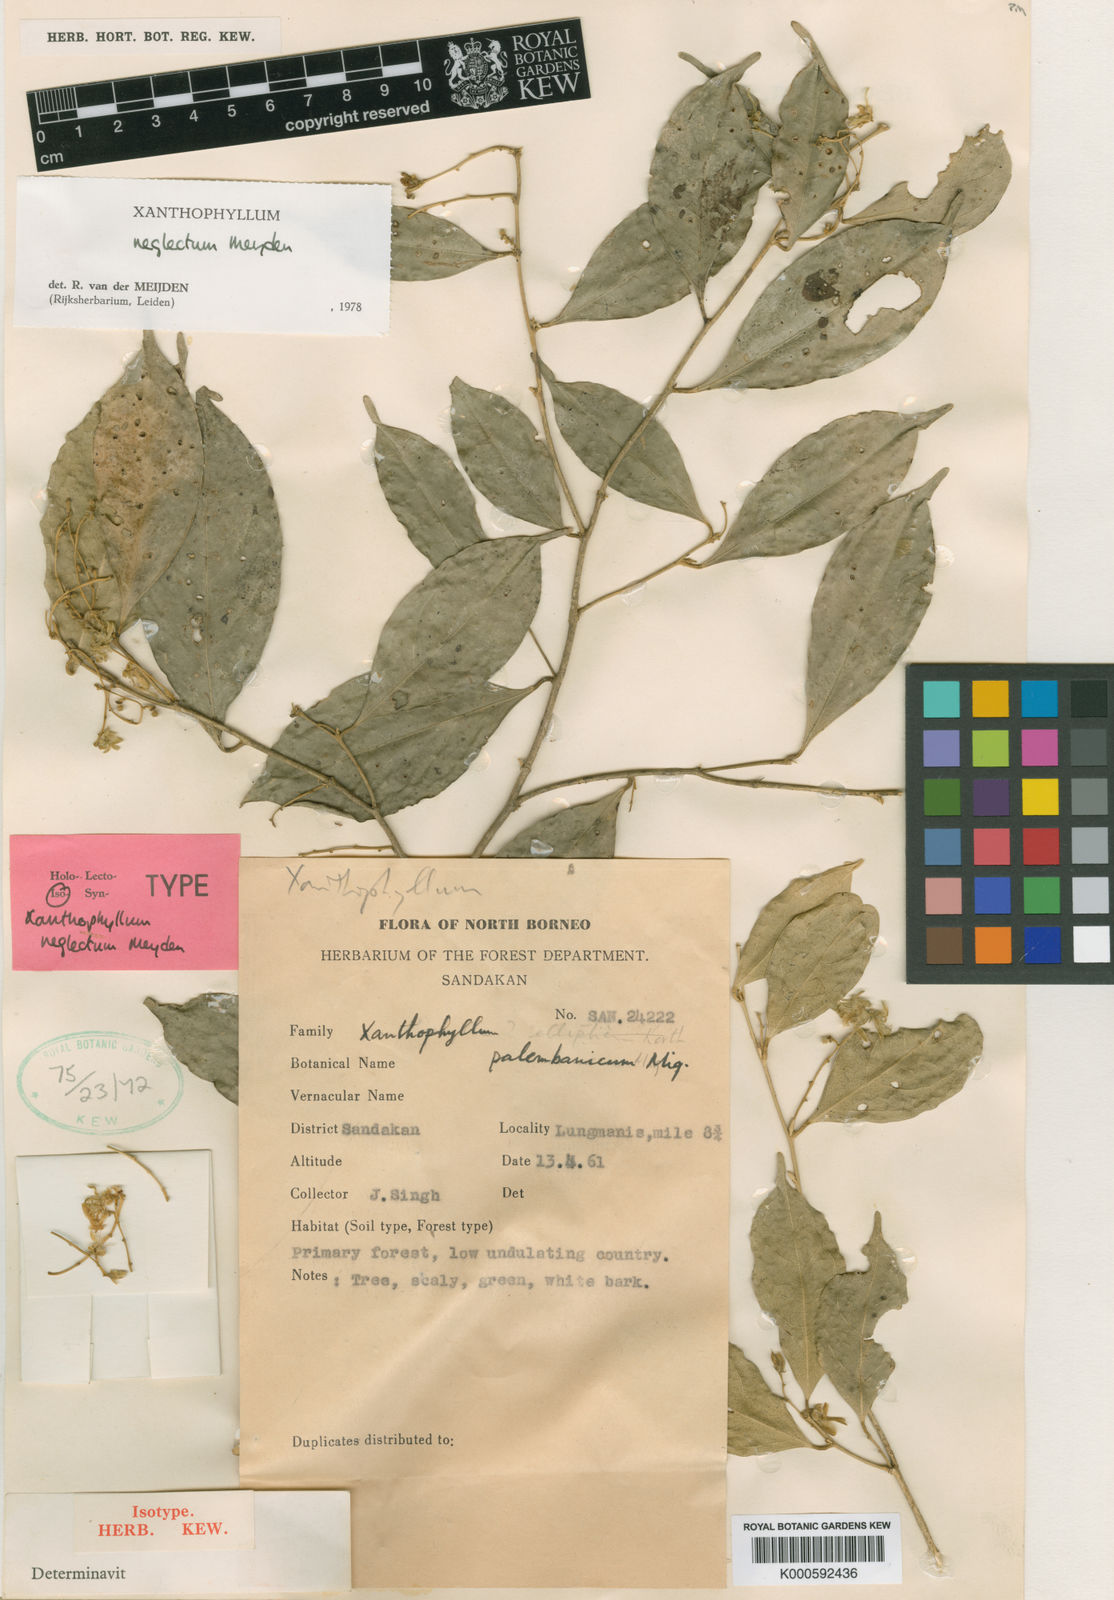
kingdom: Plantae
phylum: Tracheophyta
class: Magnoliopsida
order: Fabales
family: Polygalaceae
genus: Xanthophyllum
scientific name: Xanthophyllum neglectum
